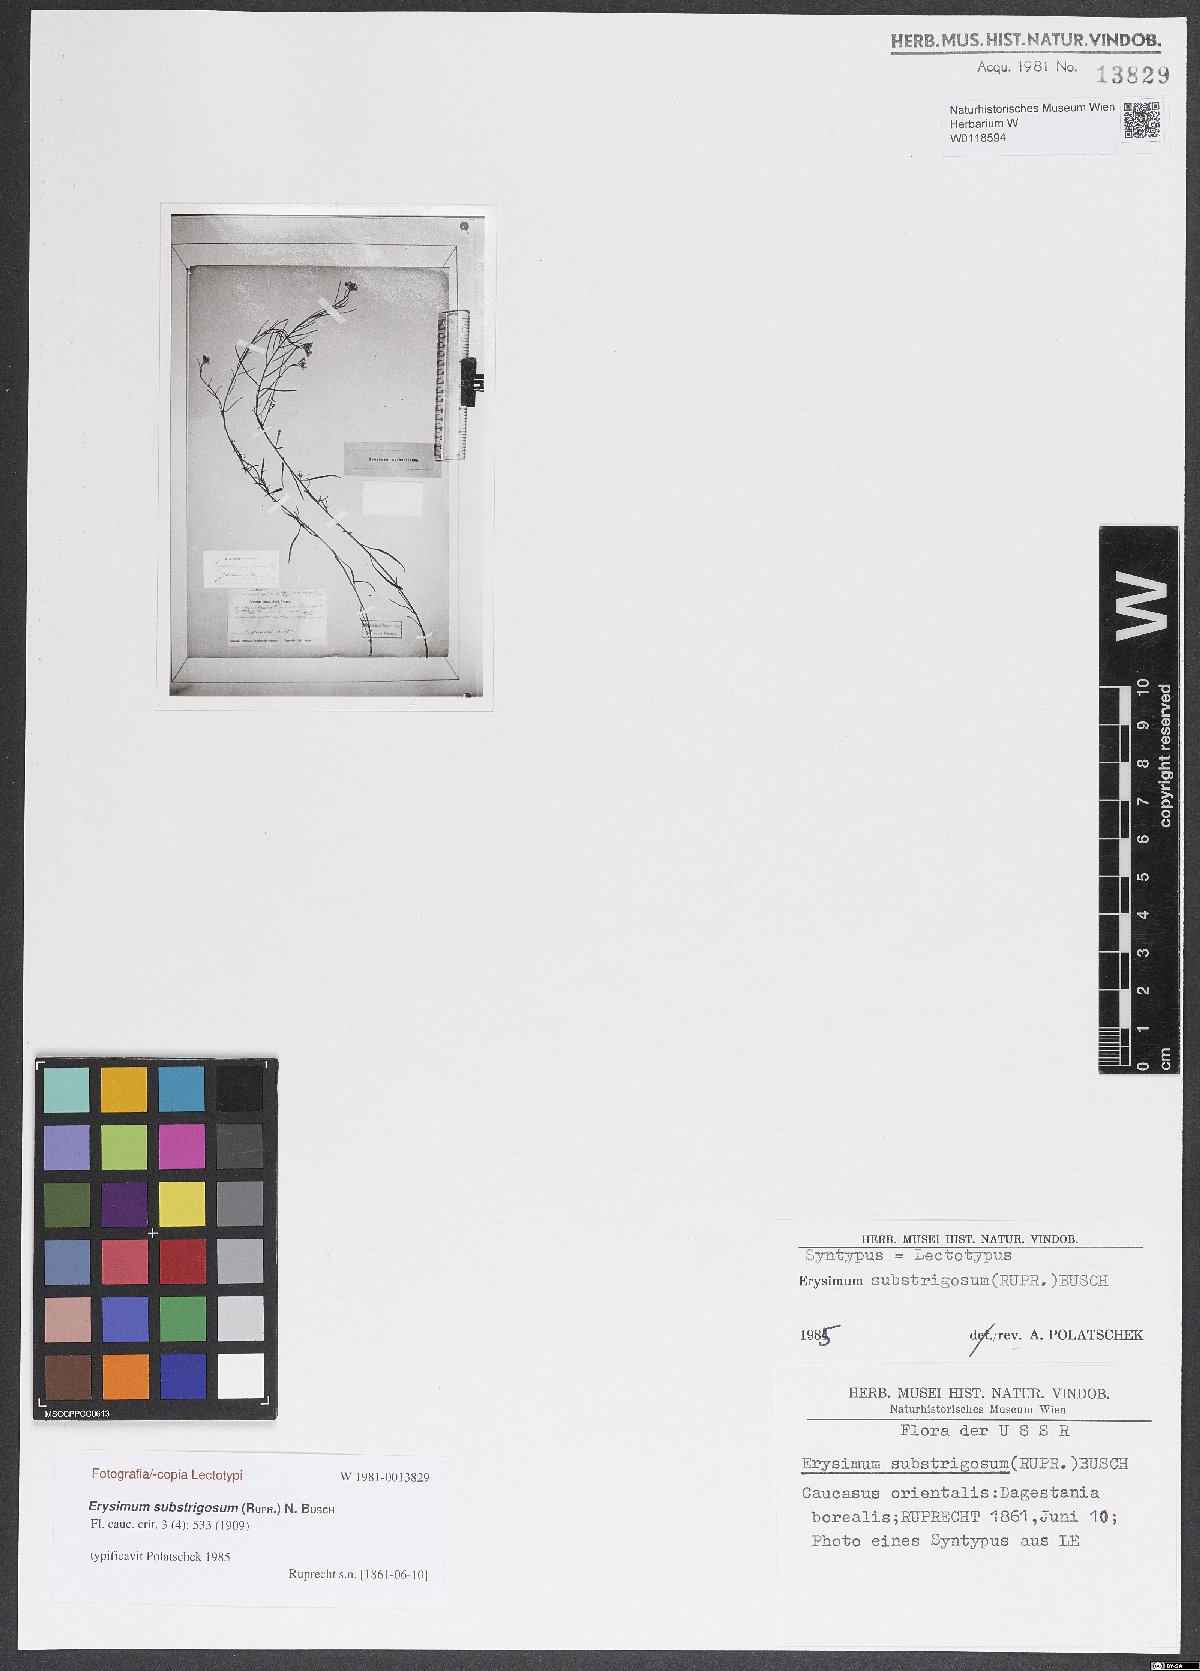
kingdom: Plantae
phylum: Tracheophyta
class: Magnoliopsida
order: Brassicales
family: Brassicaceae
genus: Erysimum
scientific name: Erysimum substrigosum
